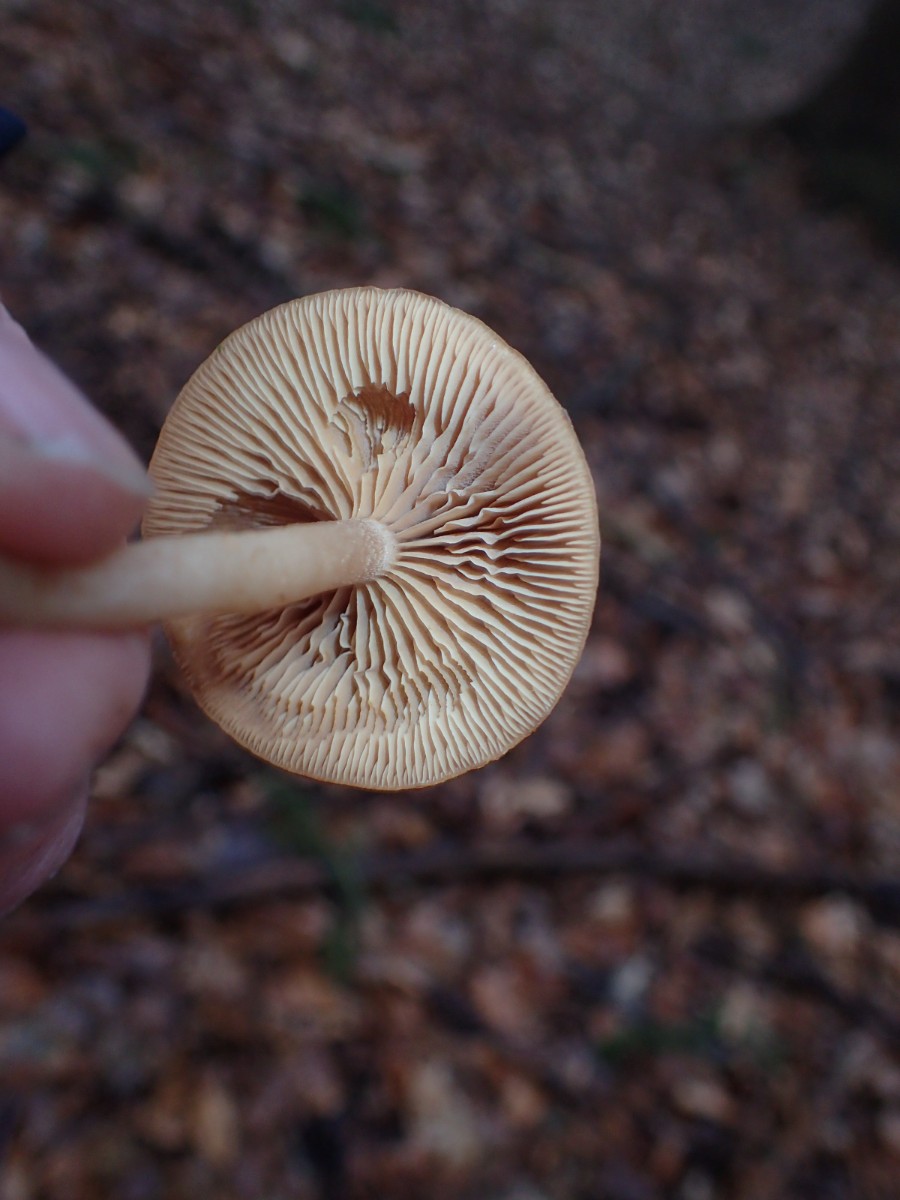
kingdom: Fungi
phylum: Basidiomycota
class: Agaricomycetes
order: Agaricales
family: Tubariaceae
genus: Tubaria
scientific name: Tubaria furfuracea
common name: kliddet fnughat
